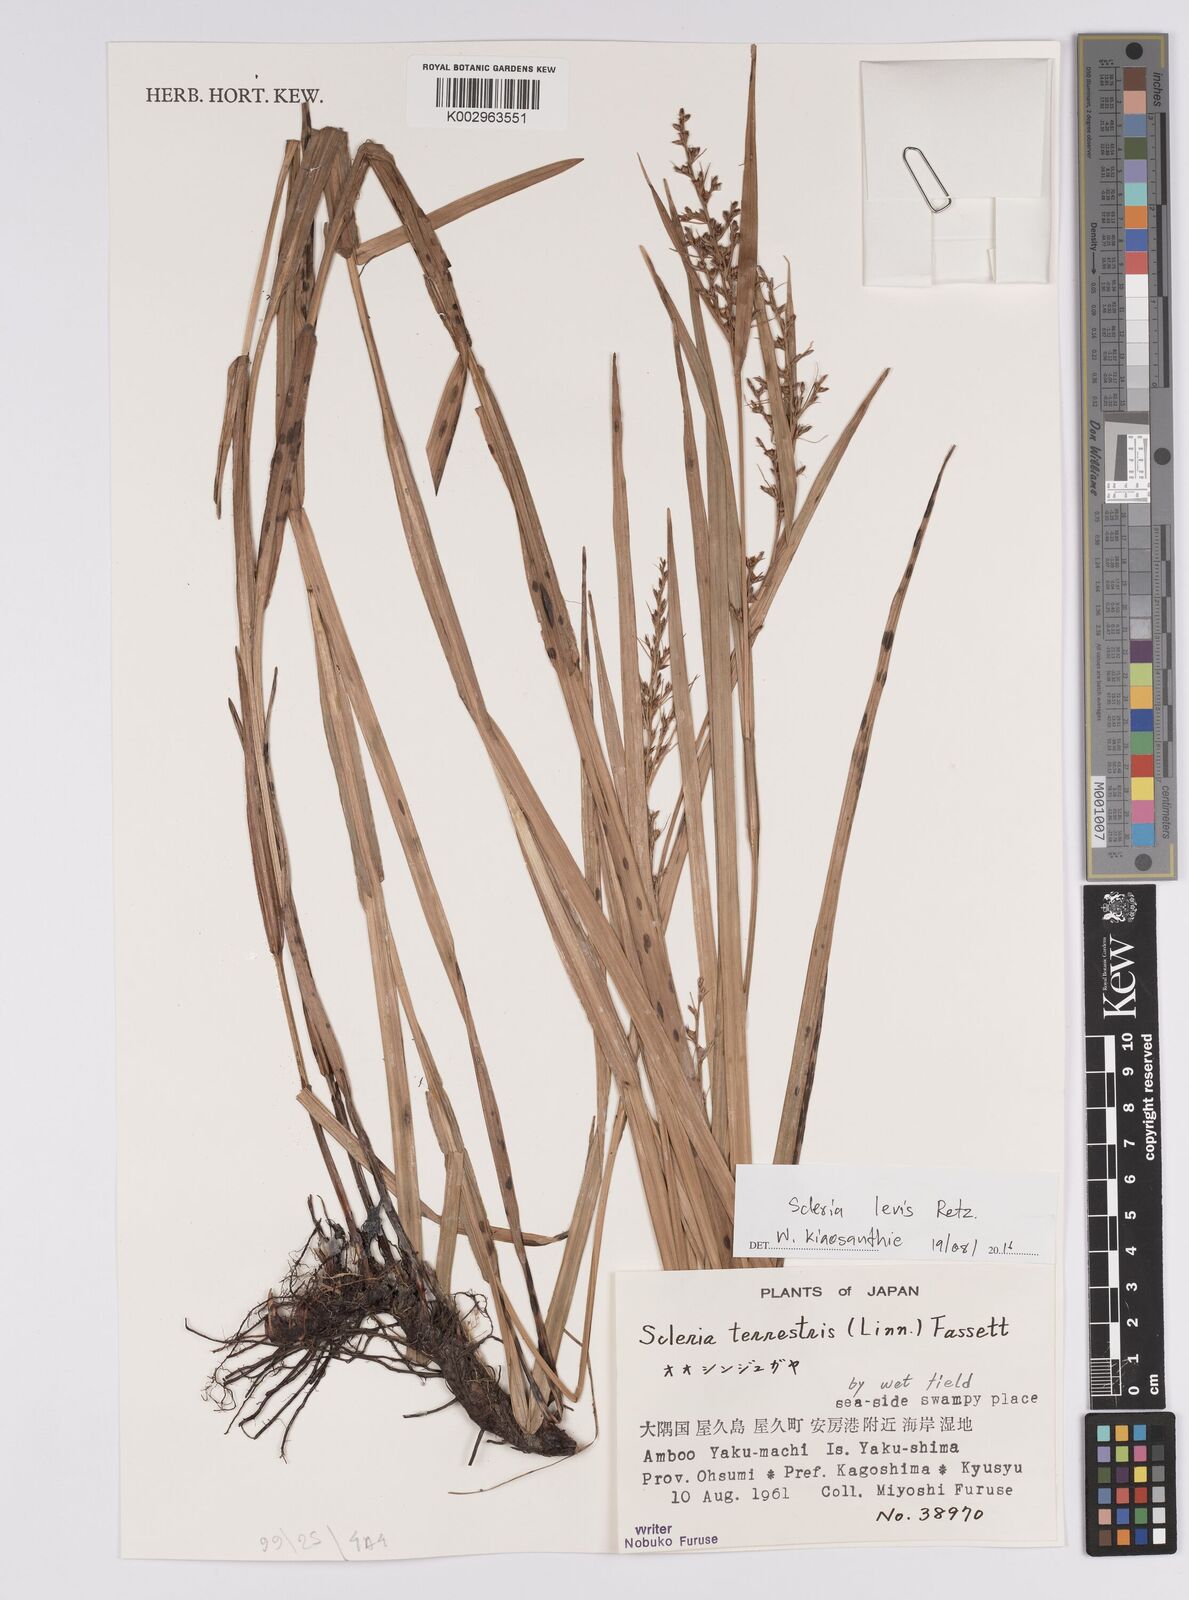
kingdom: Plantae
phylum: Tracheophyta
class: Liliopsida
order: Poales
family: Cyperaceae
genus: Scleria
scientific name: Scleria levis
